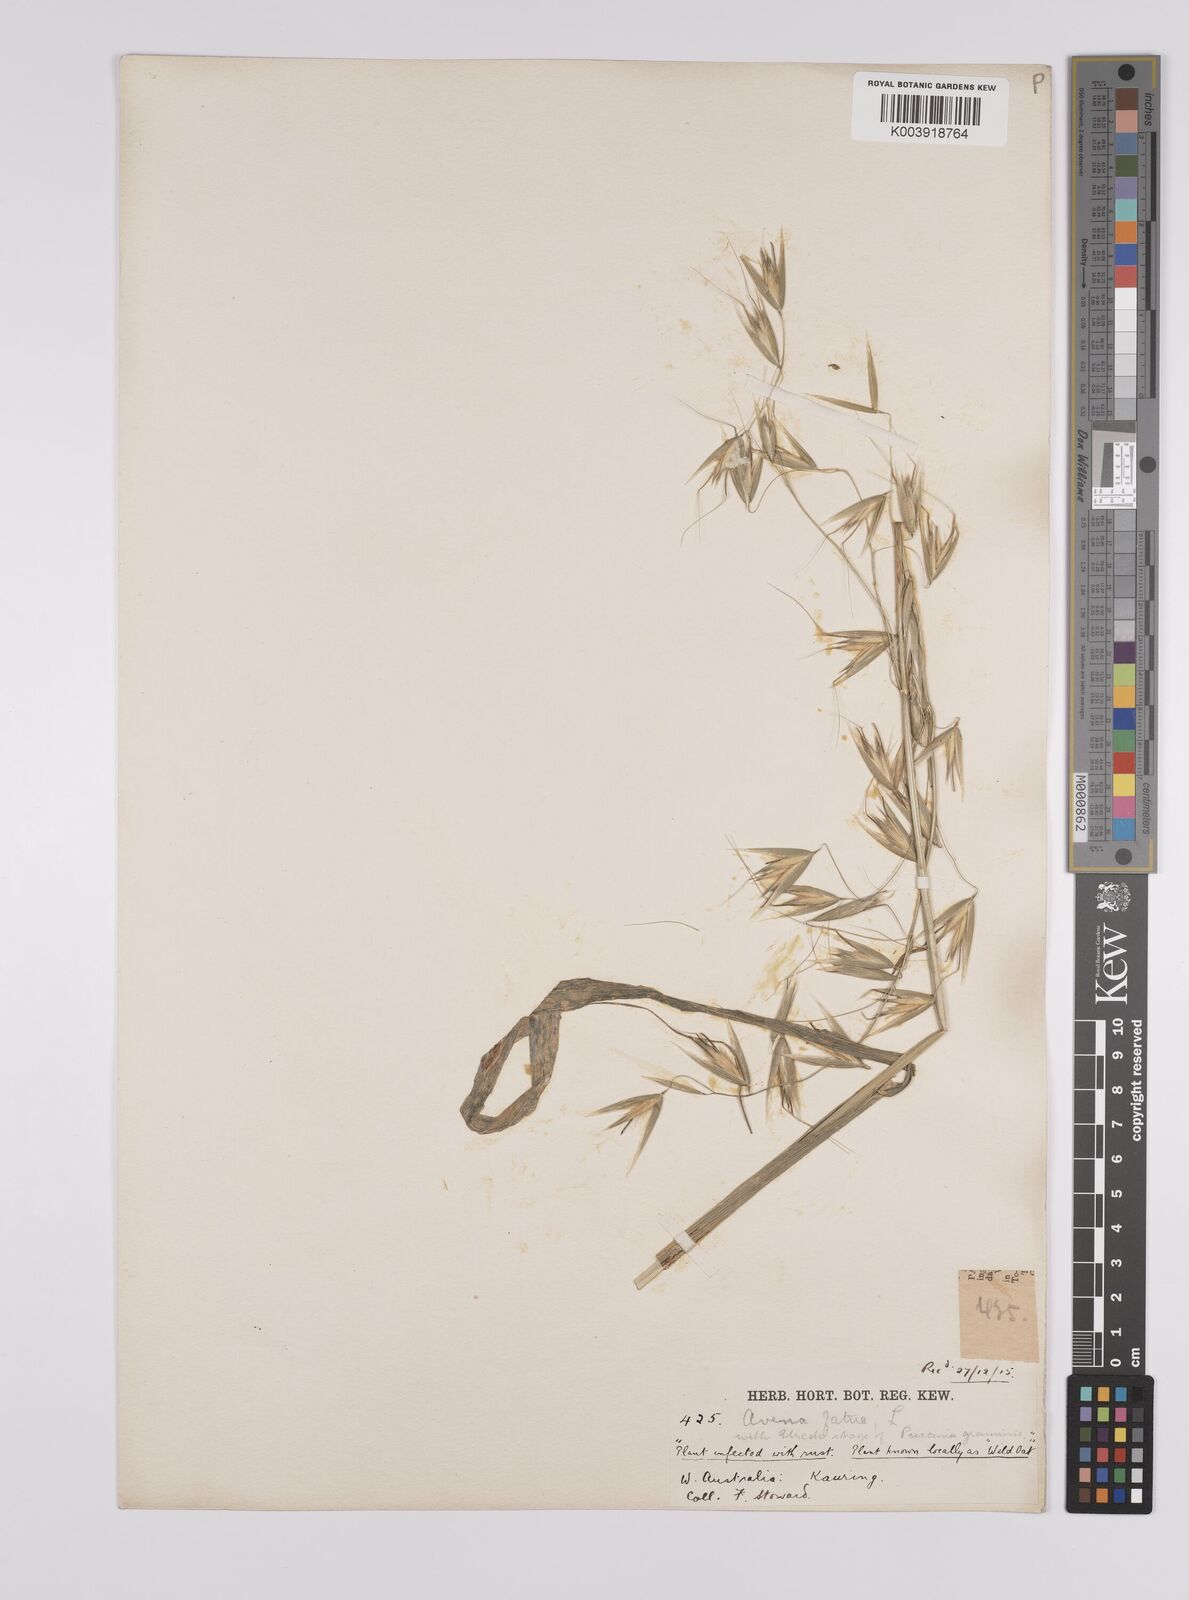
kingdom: Plantae
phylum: Tracheophyta
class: Liliopsida
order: Poales
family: Poaceae
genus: Avena
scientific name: Avena fatua
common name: Wild oat
